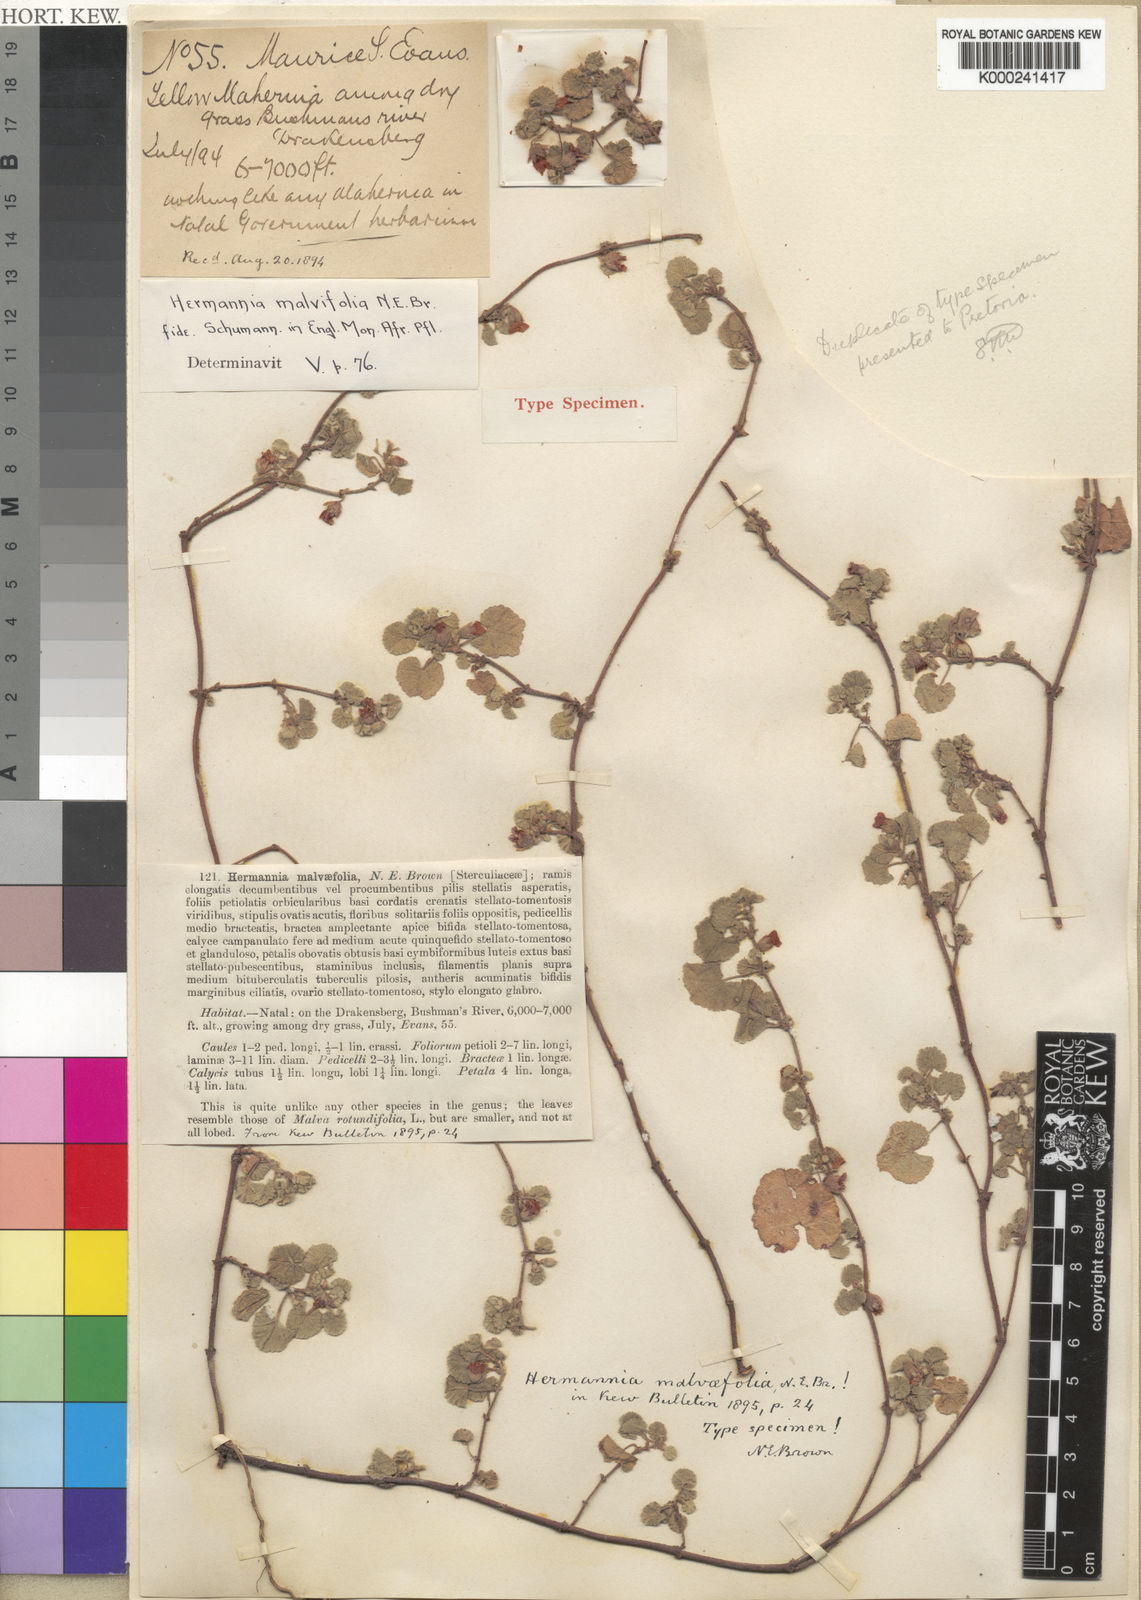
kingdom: Plantae
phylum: Tracheophyta
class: Magnoliopsida
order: Malvales
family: Malvaceae
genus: Hermannia
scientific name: Hermannia malvifolia
